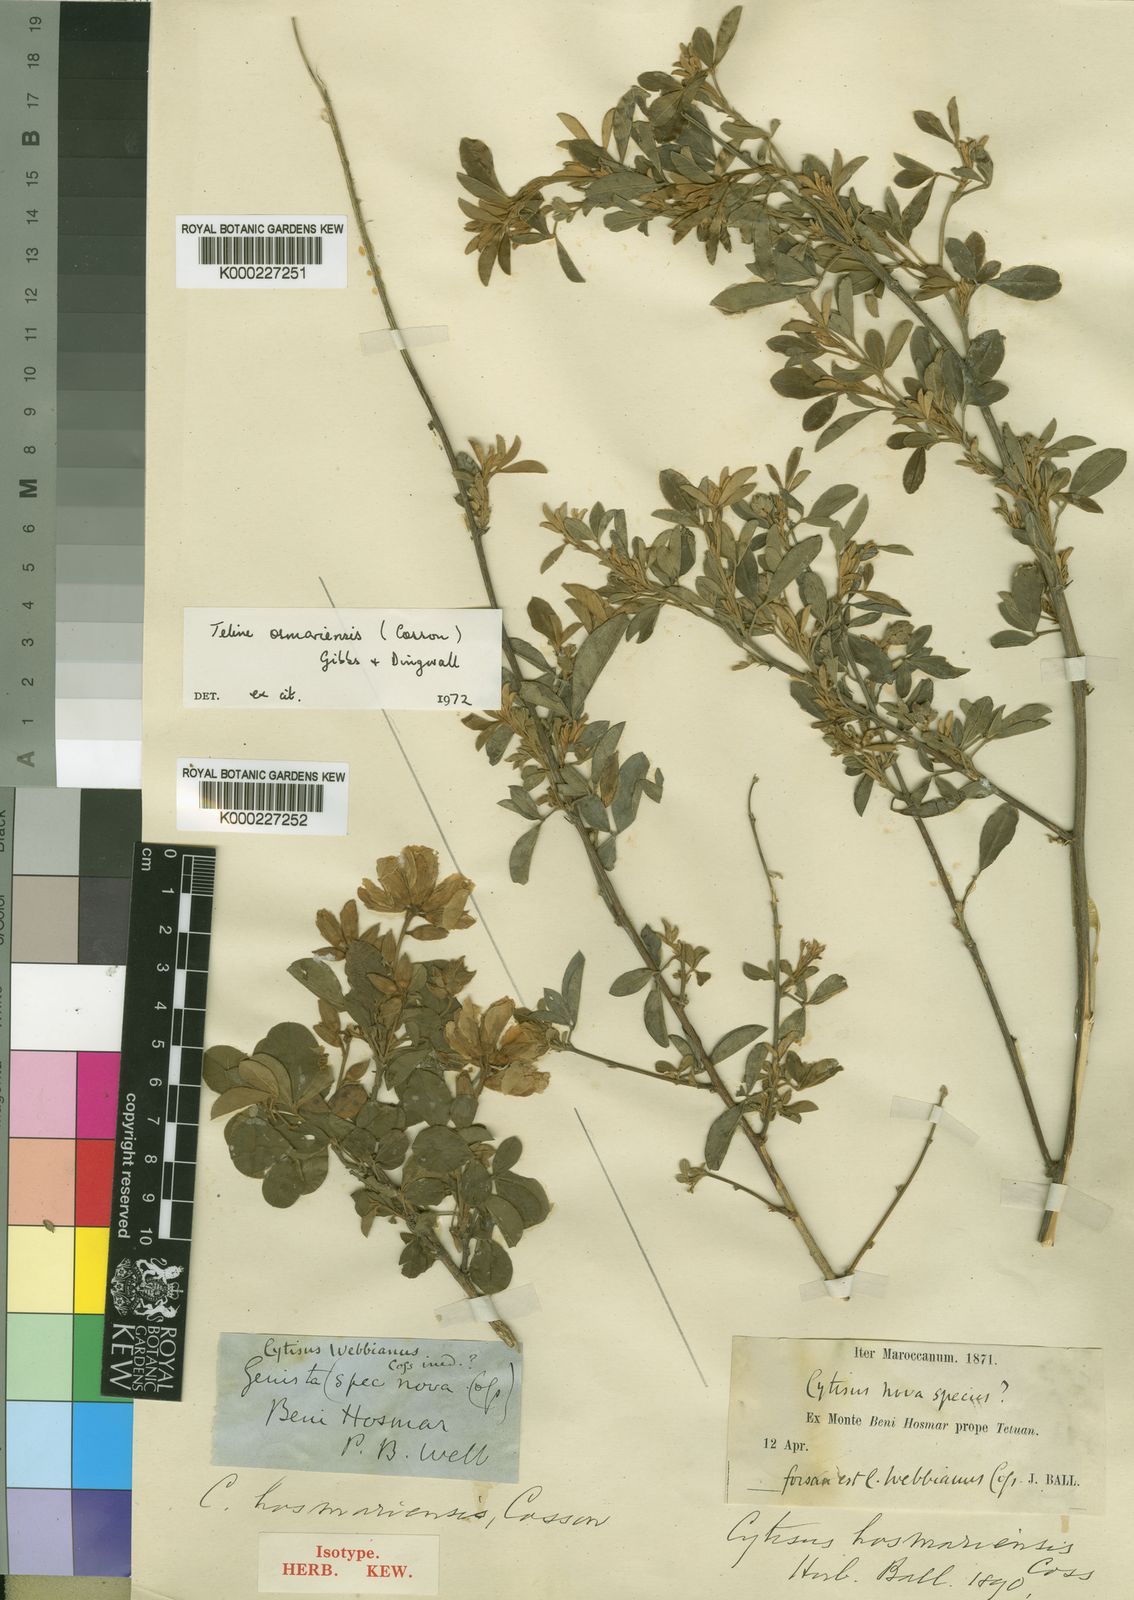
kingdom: Plantae
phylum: Tracheophyta
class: Magnoliopsida
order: Fabales
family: Fabaceae
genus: Genista
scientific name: Genista
